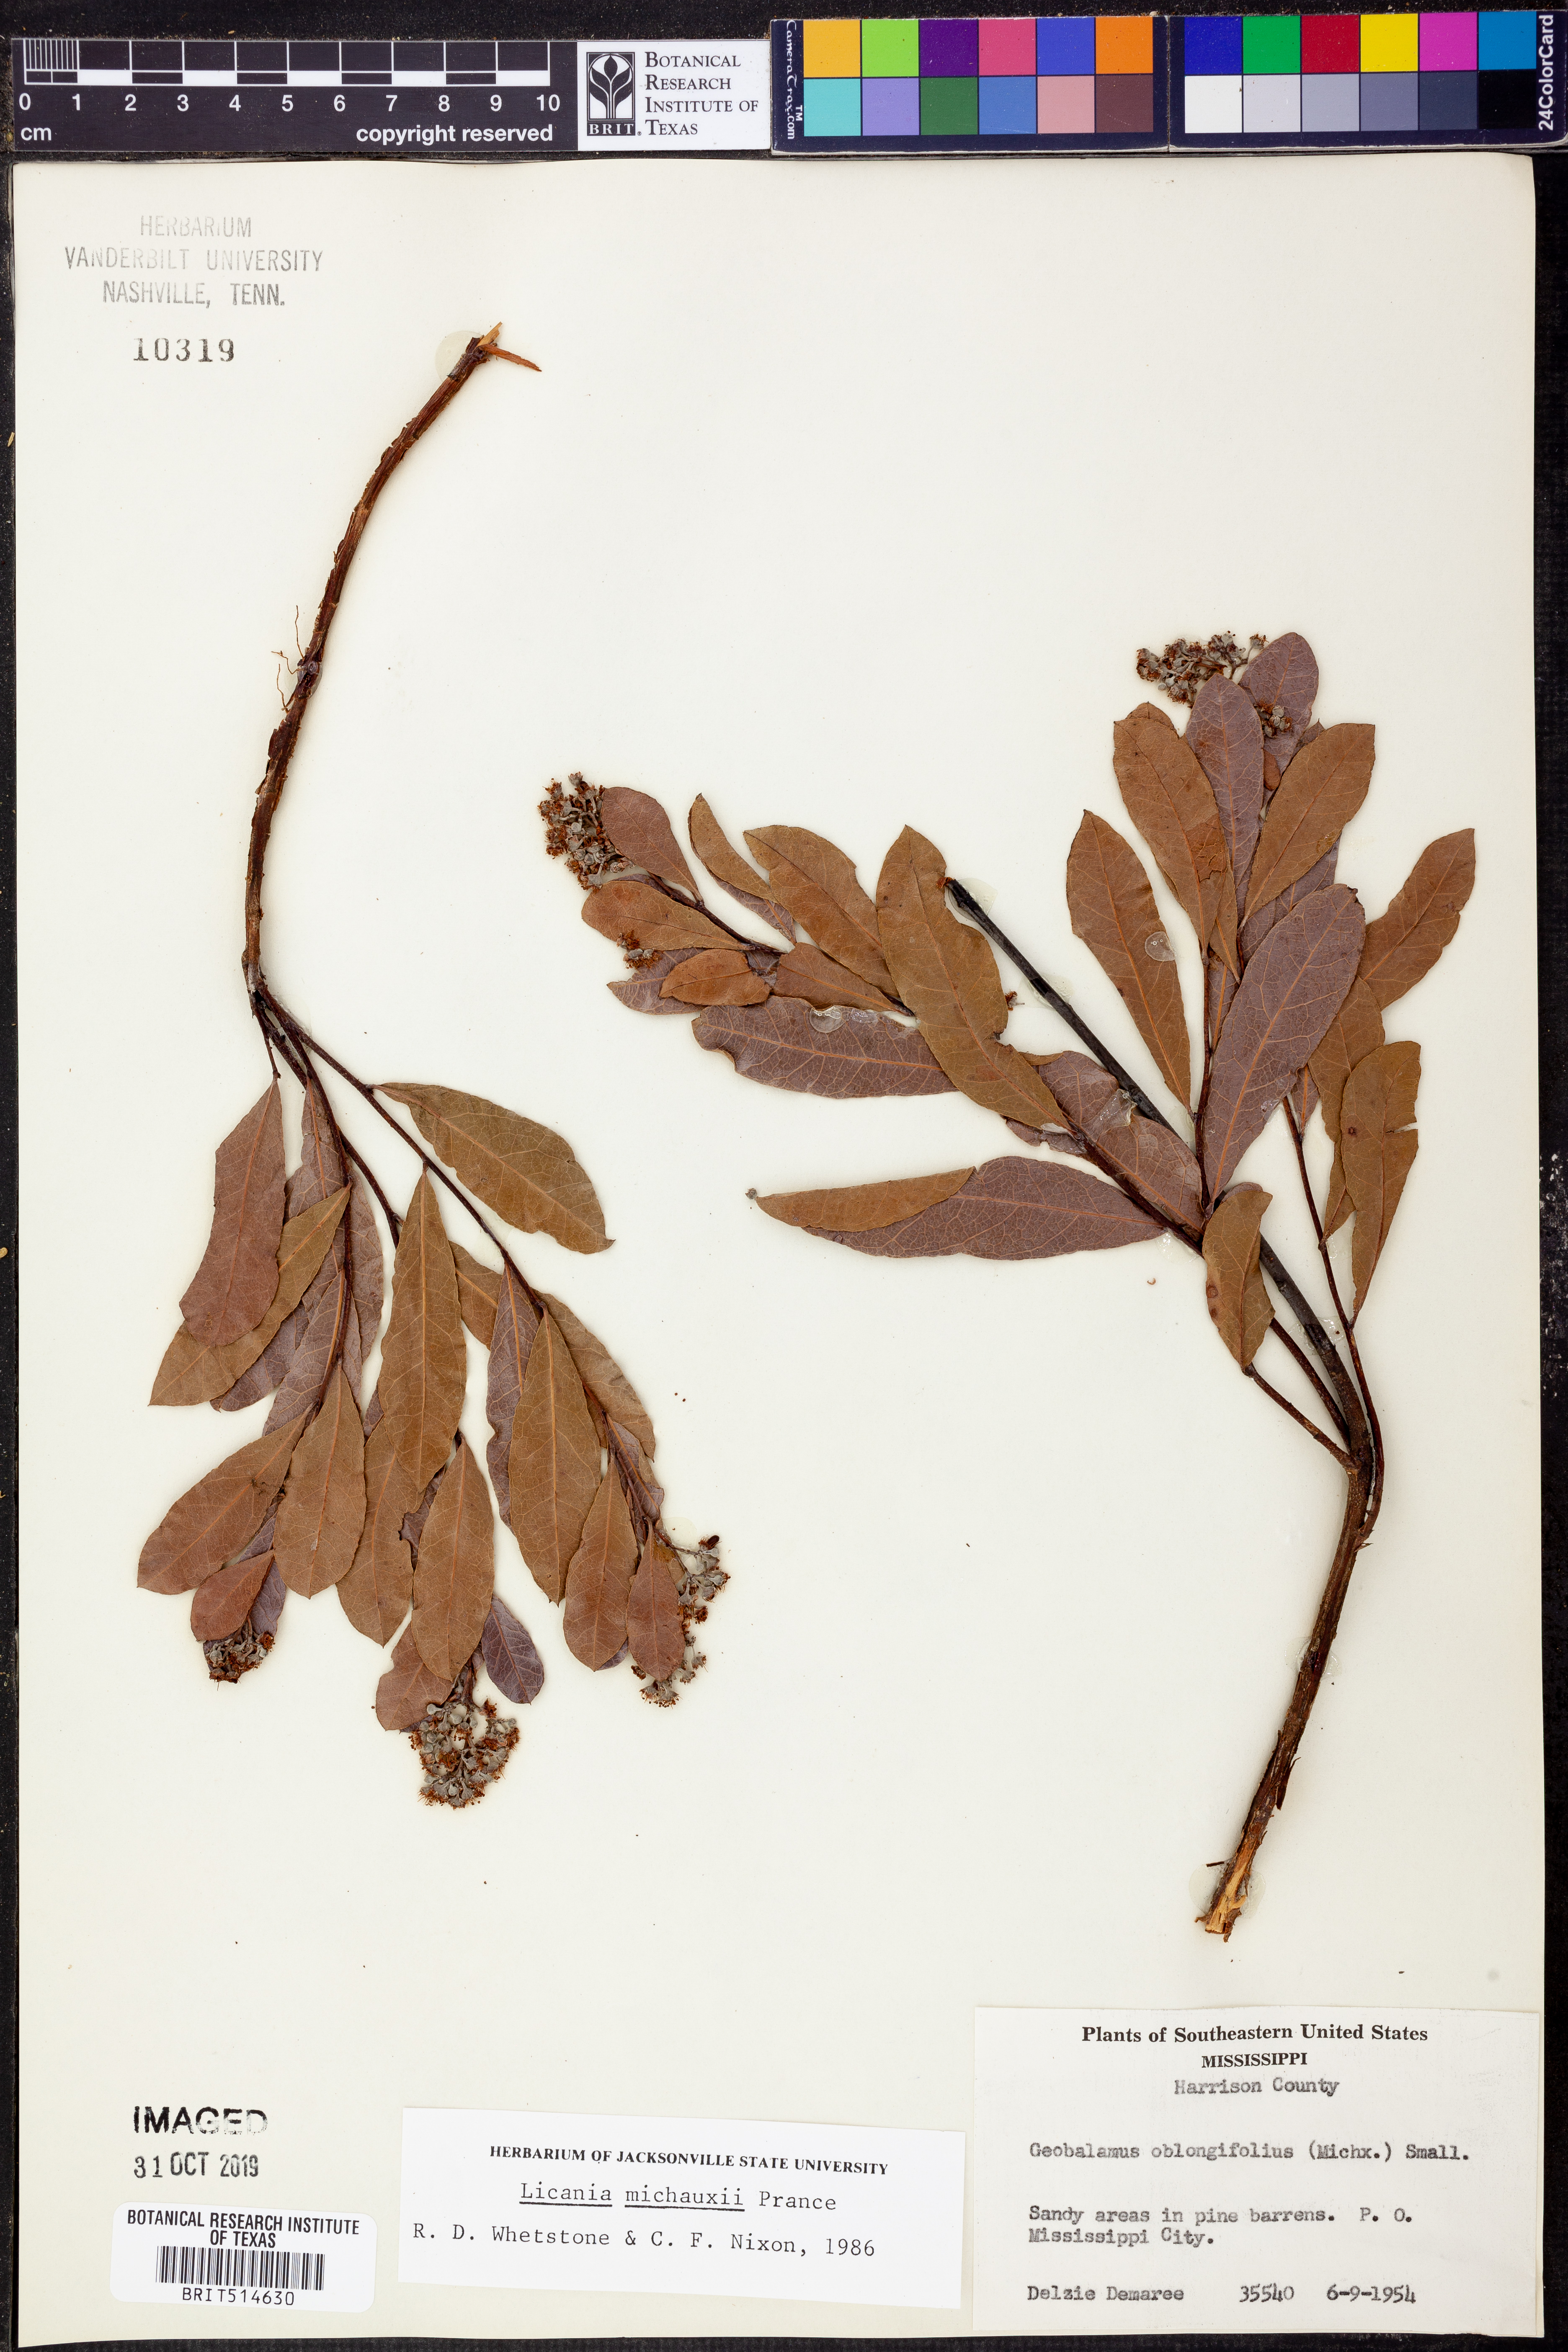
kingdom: Plantae
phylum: Tracheophyta
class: Magnoliopsida
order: Malpighiales
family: Chrysobalanaceae
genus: Geobalanus
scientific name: Geobalanus oblongifolius
